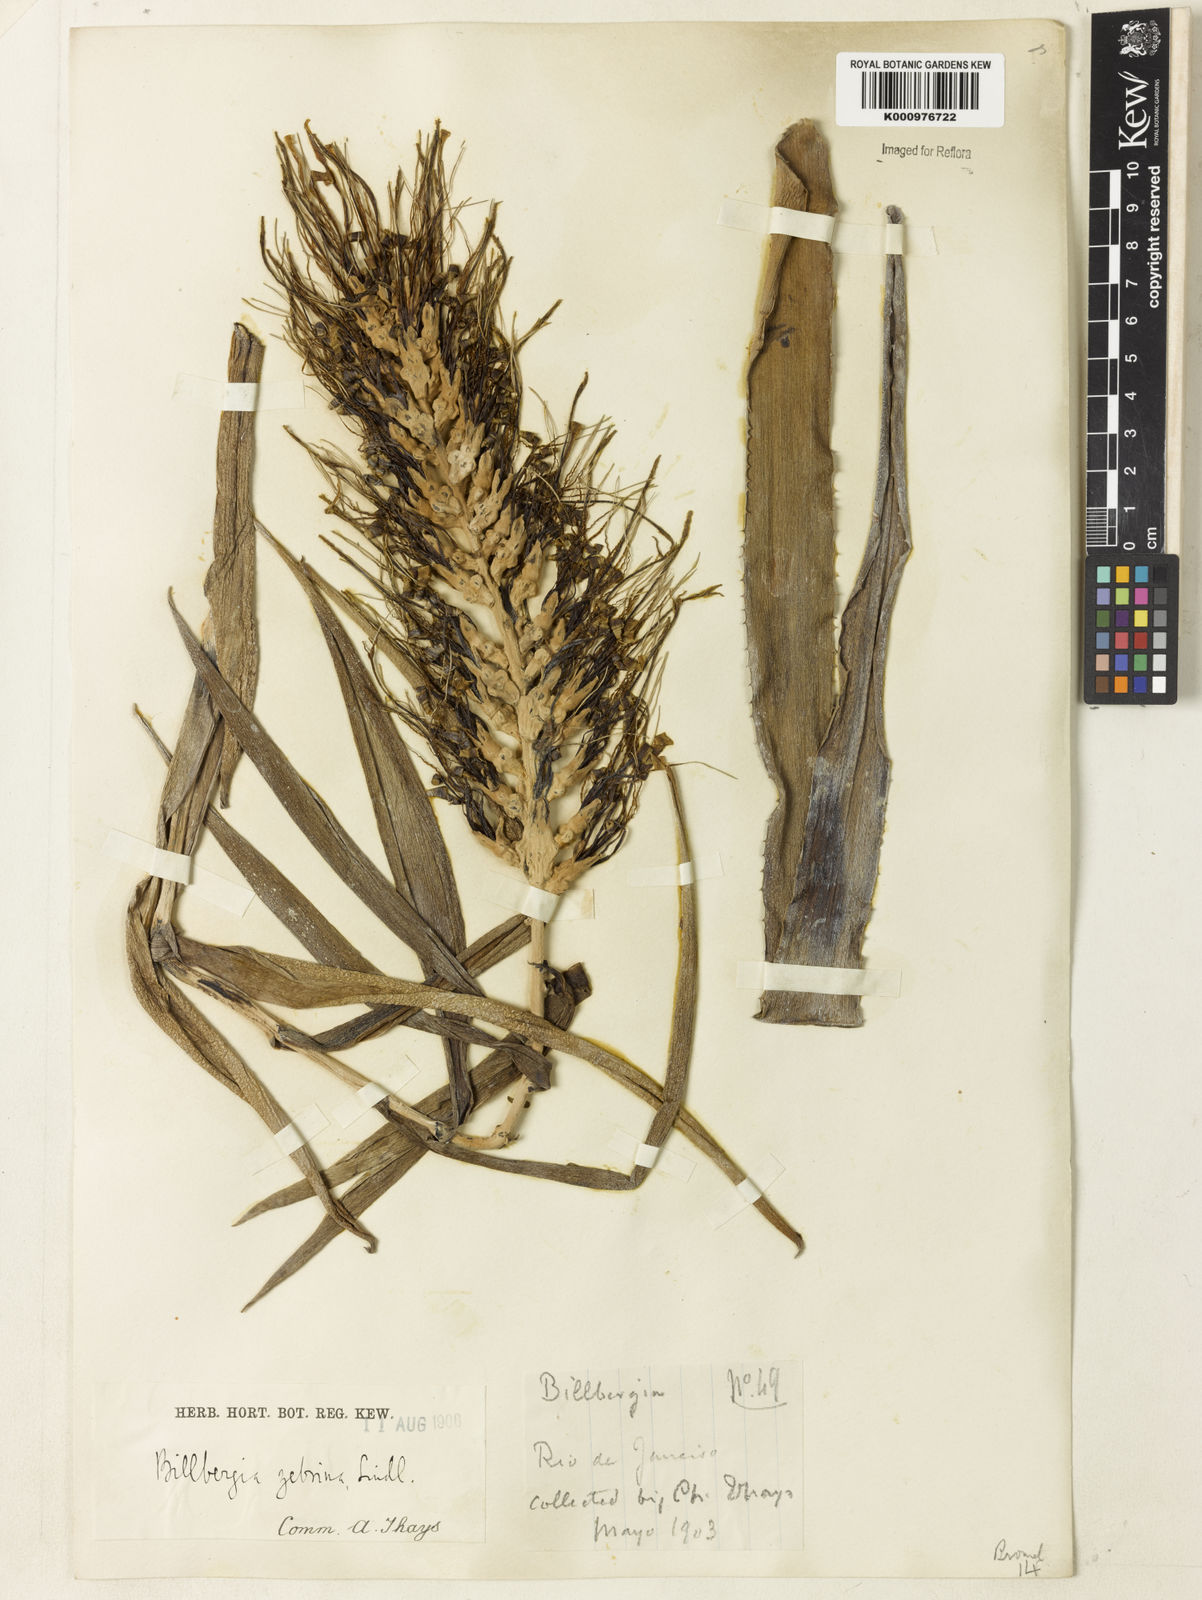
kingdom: Plantae
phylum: Tracheophyta
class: Liliopsida
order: Poales
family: Bromeliaceae
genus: Billbergia
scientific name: Billbergia zebrina
